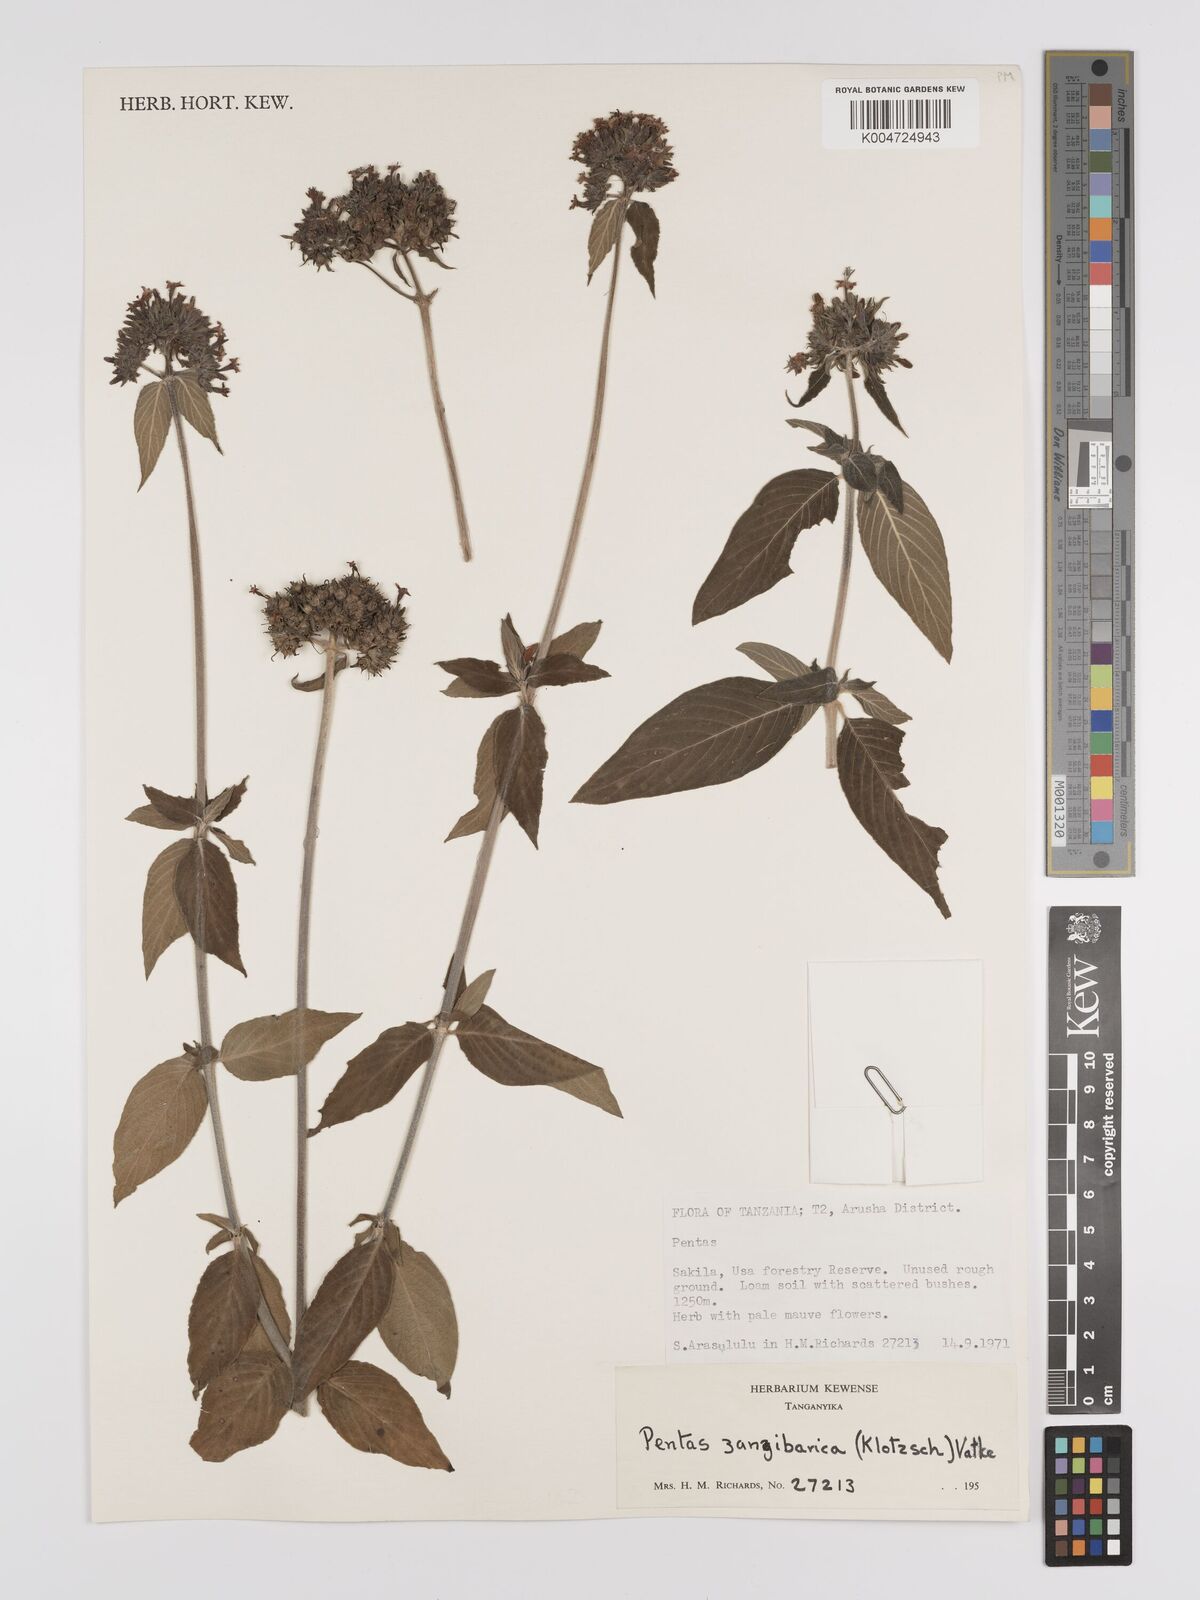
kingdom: Plantae
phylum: Tracheophyta
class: Magnoliopsida
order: Gentianales
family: Rubiaceae
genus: Pentas
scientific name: Pentas zanzibarica
